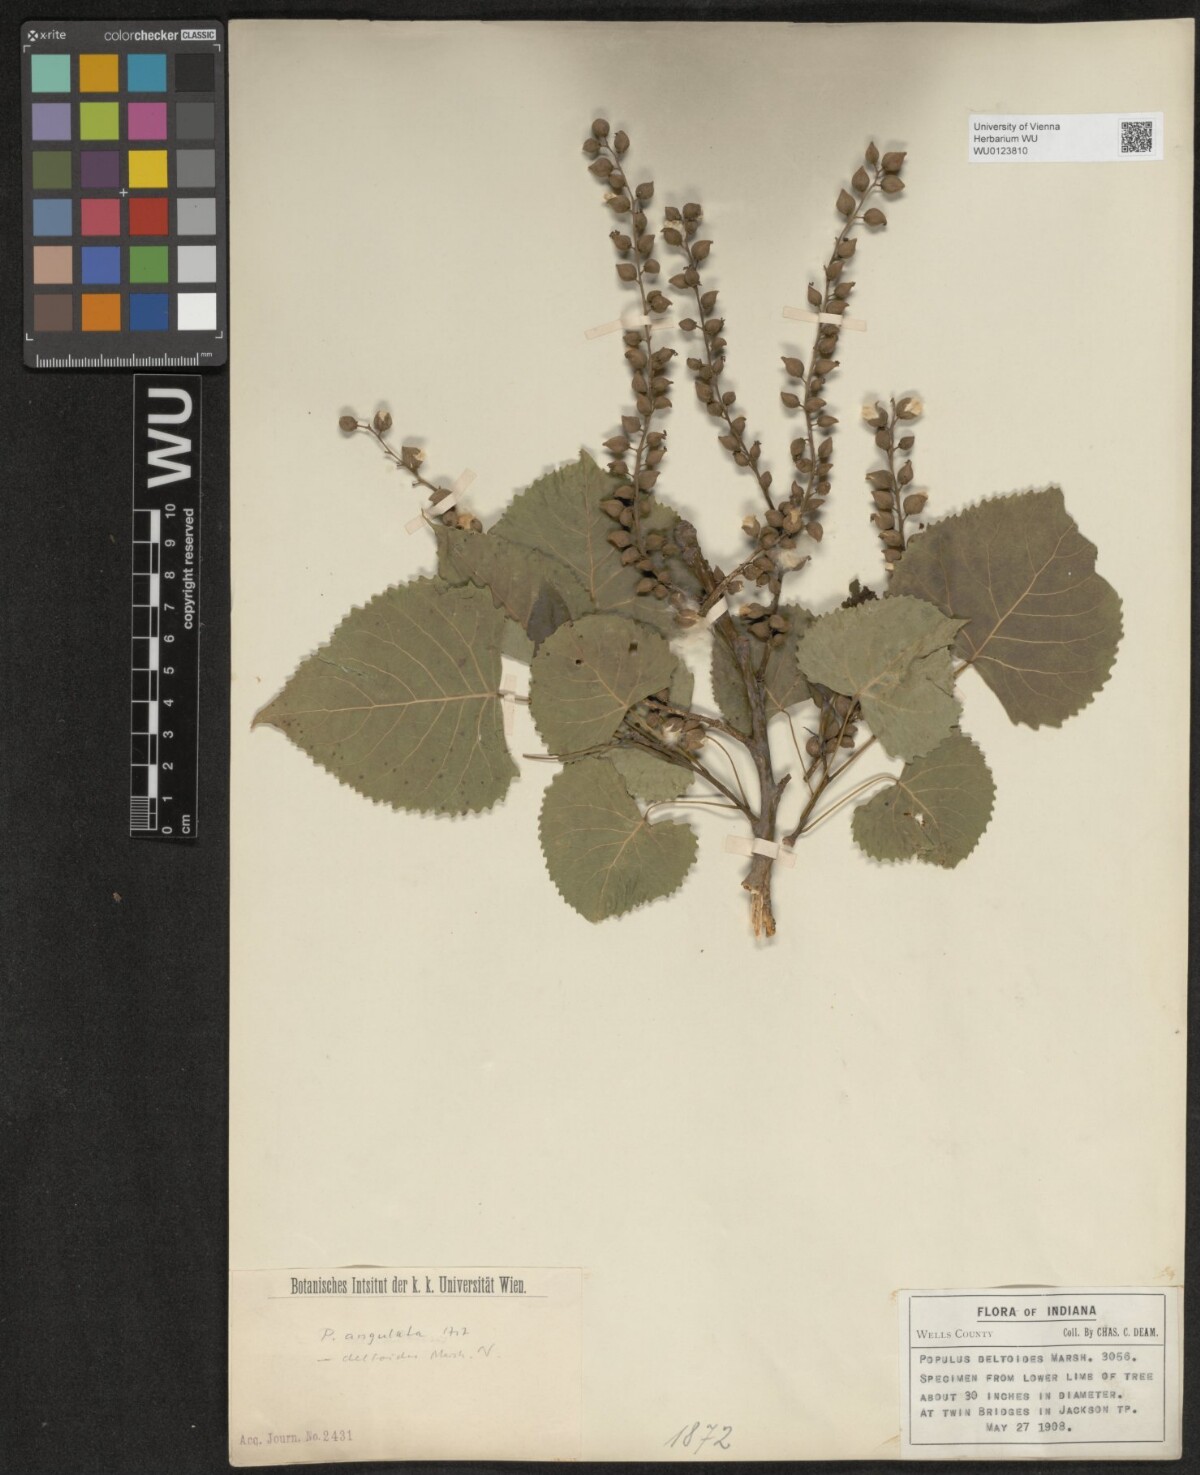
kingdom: Plantae
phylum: Tracheophyta
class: Magnoliopsida
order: Malpighiales
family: Salicaceae
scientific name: Salicaceae
